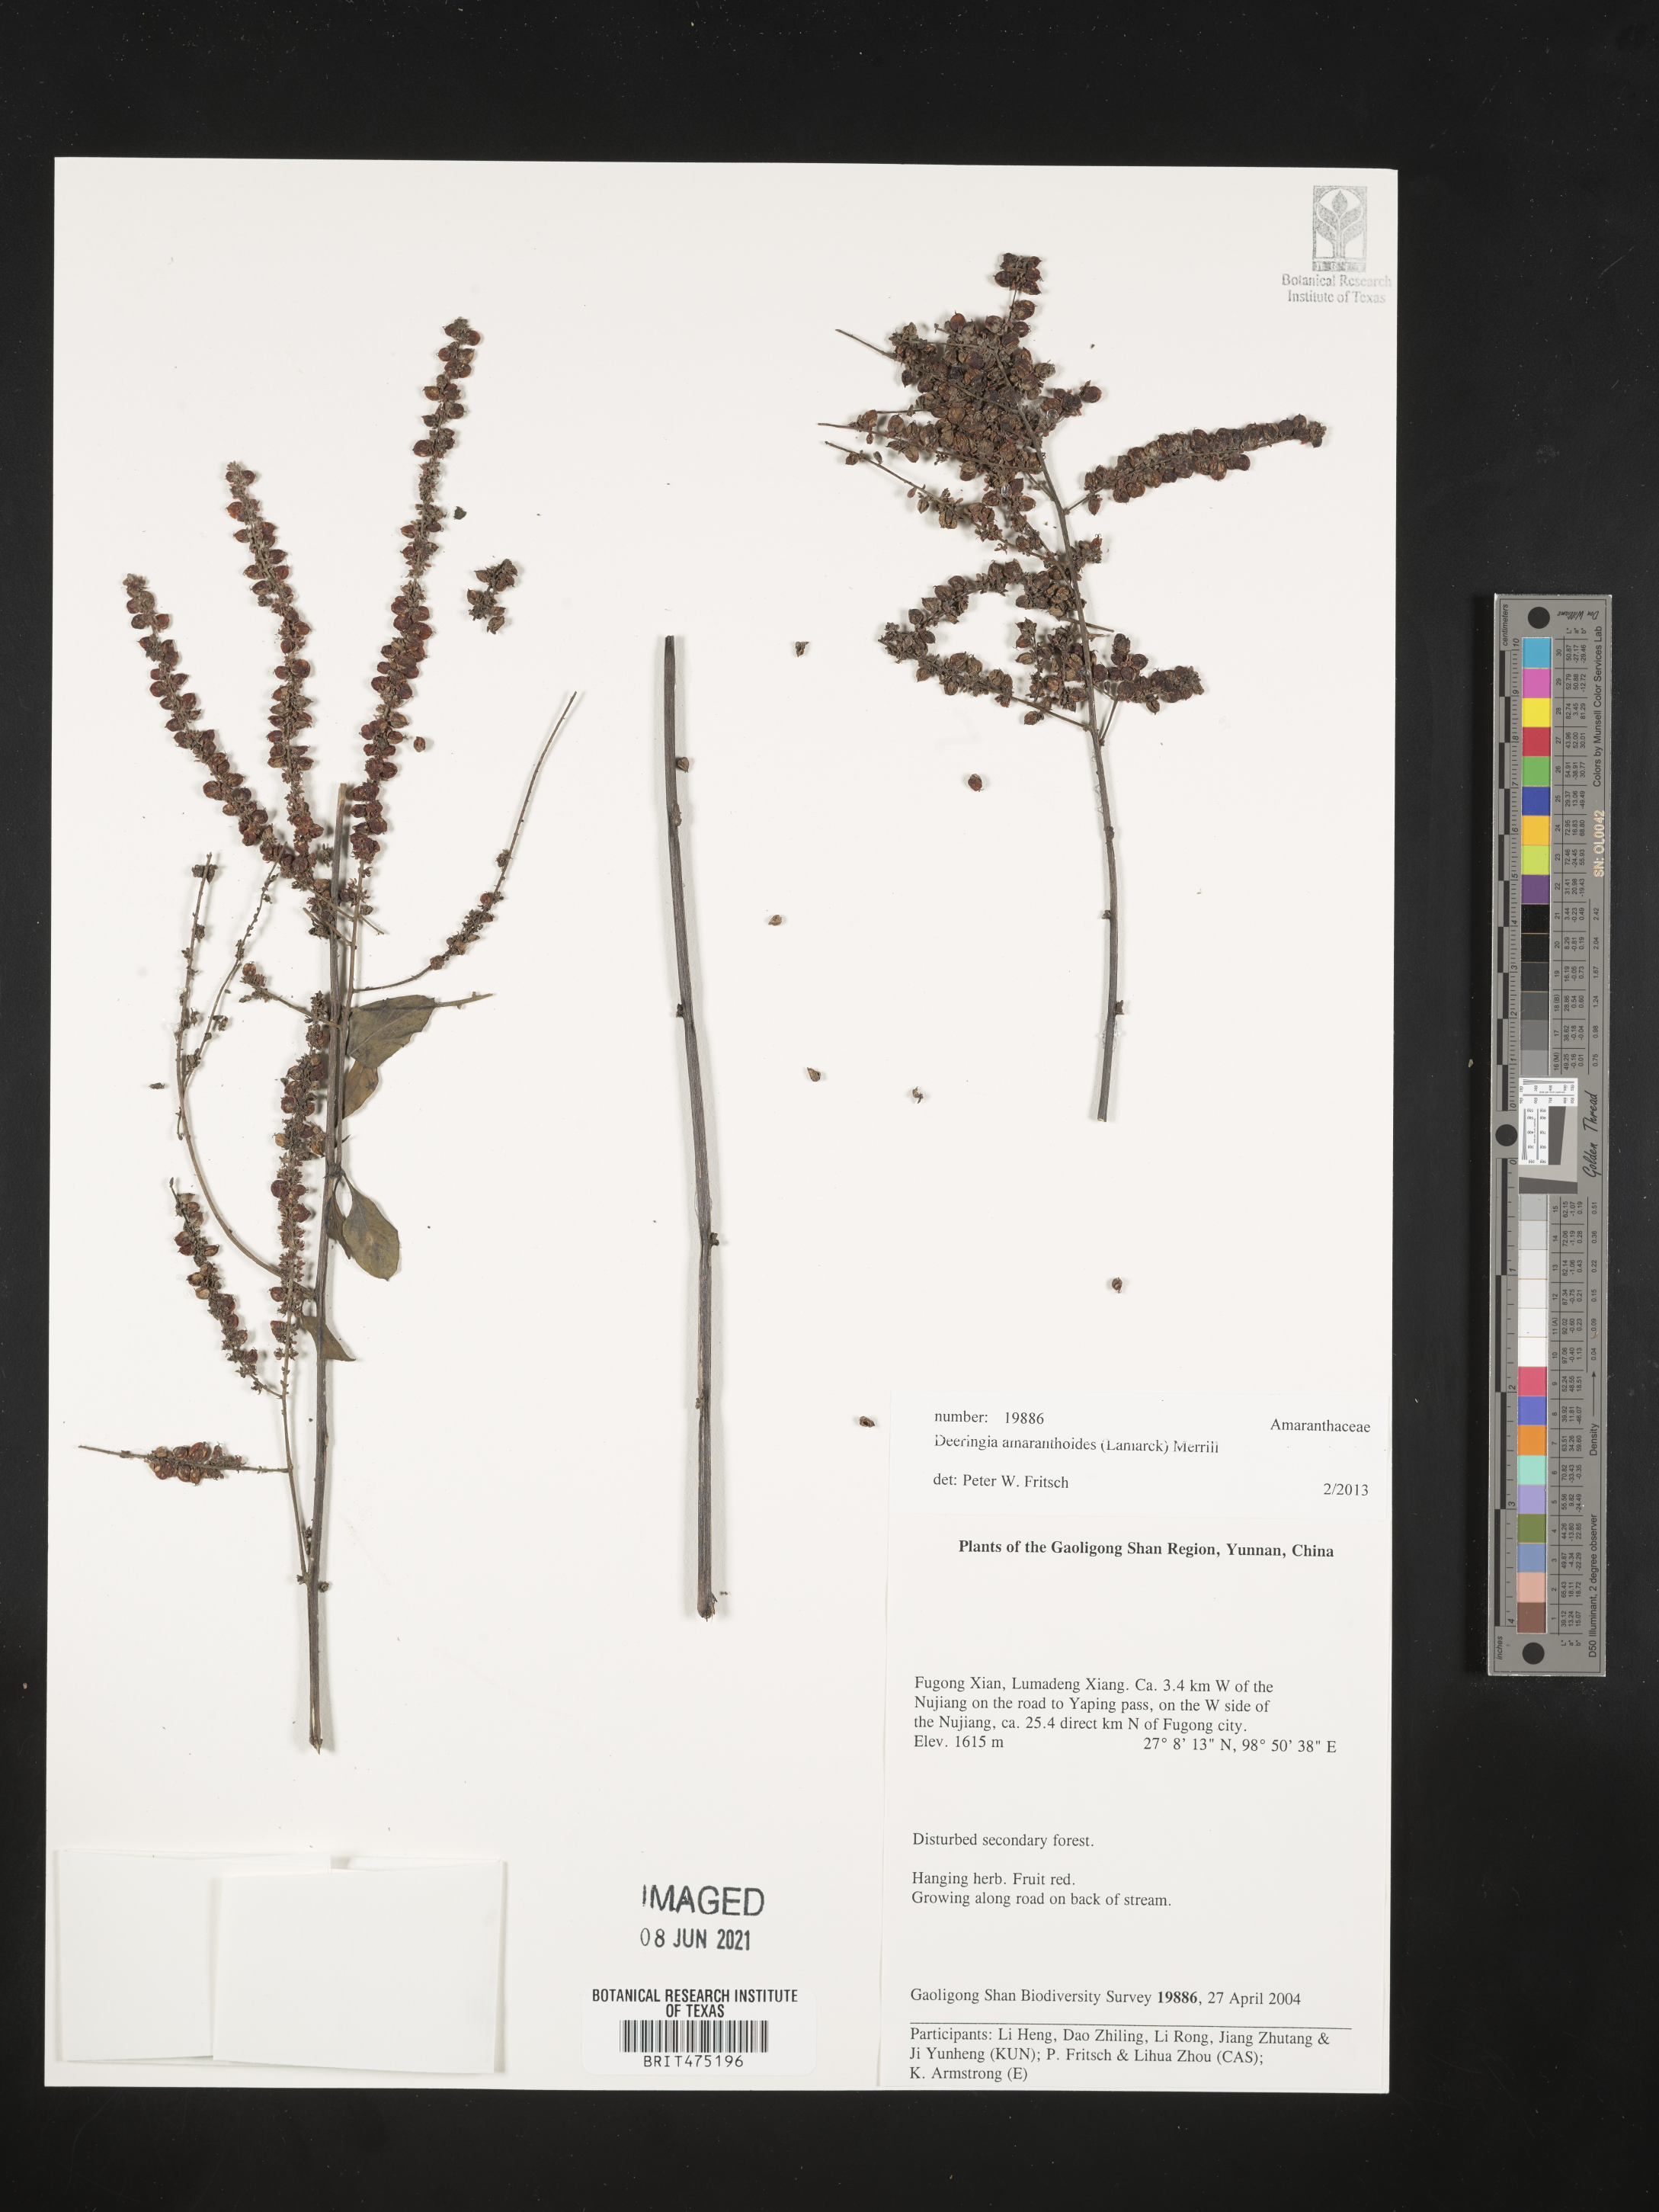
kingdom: Plantae
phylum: Tracheophyta
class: Magnoliopsida
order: Caryophyllales
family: Amaranthaceae
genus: Deeringia
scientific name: Deeringia amaranthoides
